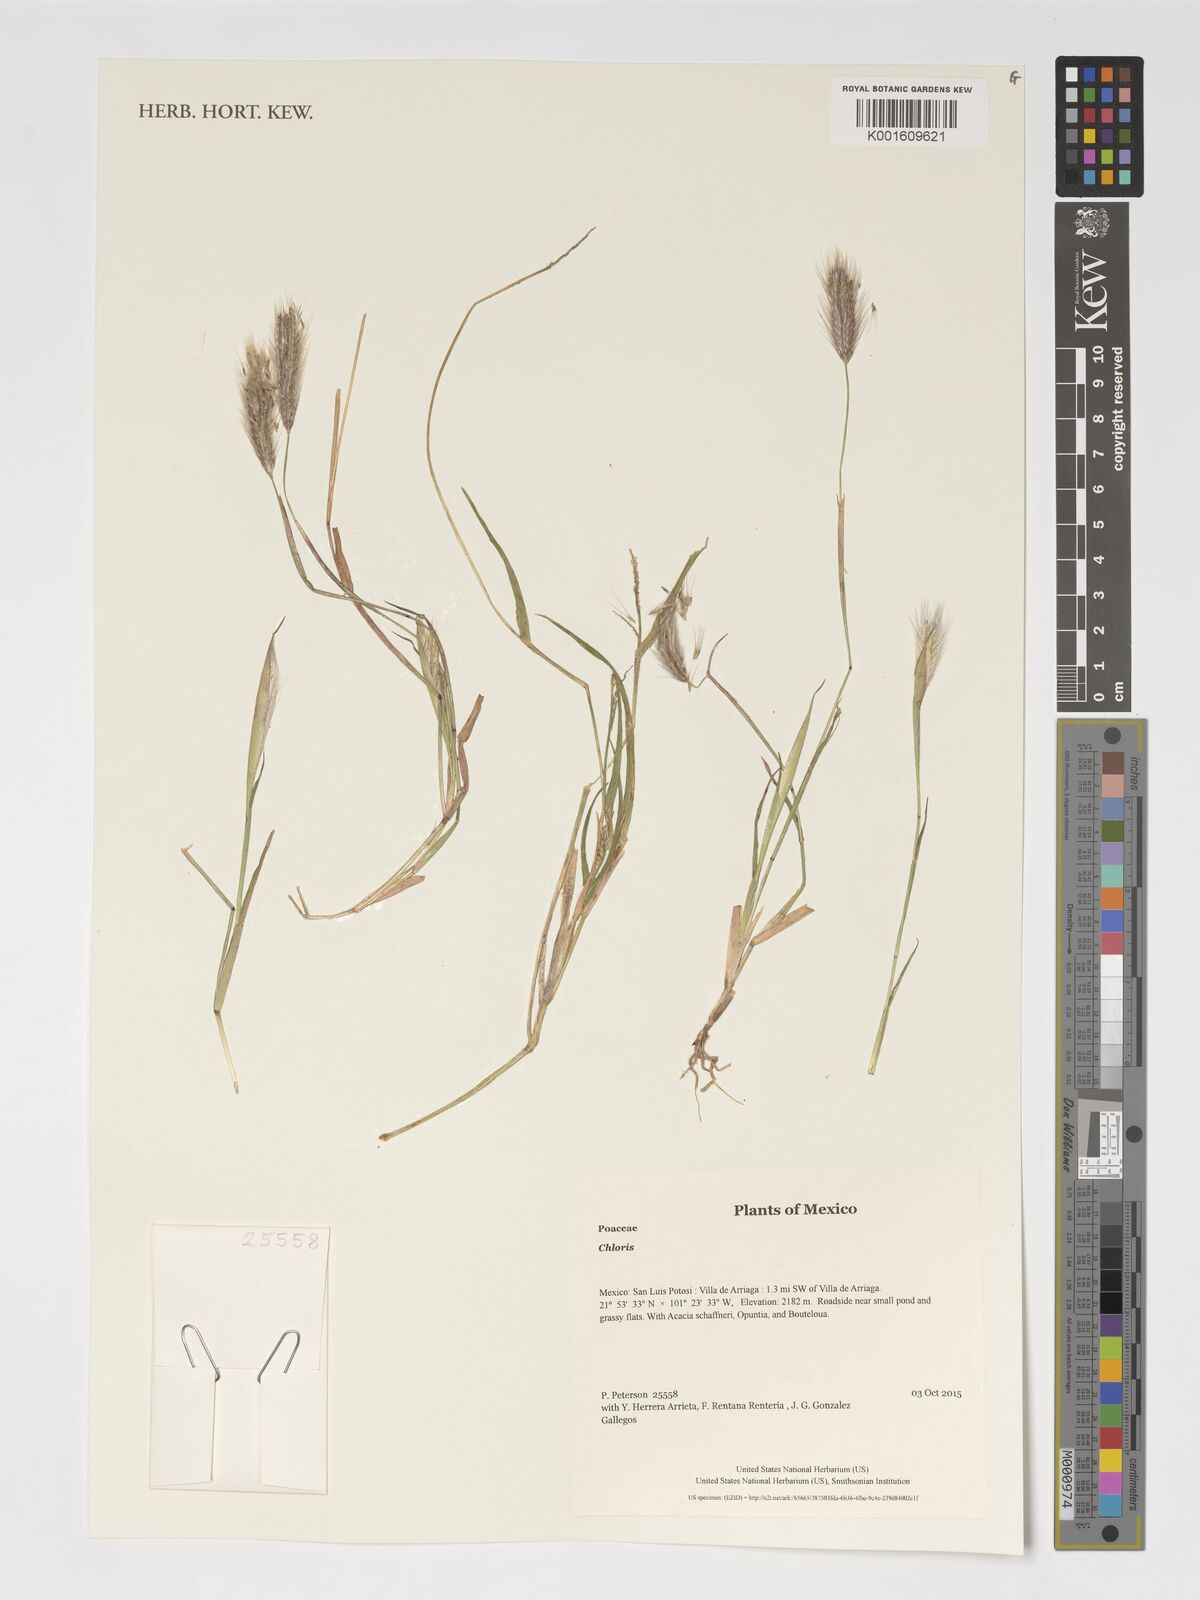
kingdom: Plantae
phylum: Tracheophyta
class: Liliopsida
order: Poales
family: Poaceae
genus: Chloris
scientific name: Chloris
